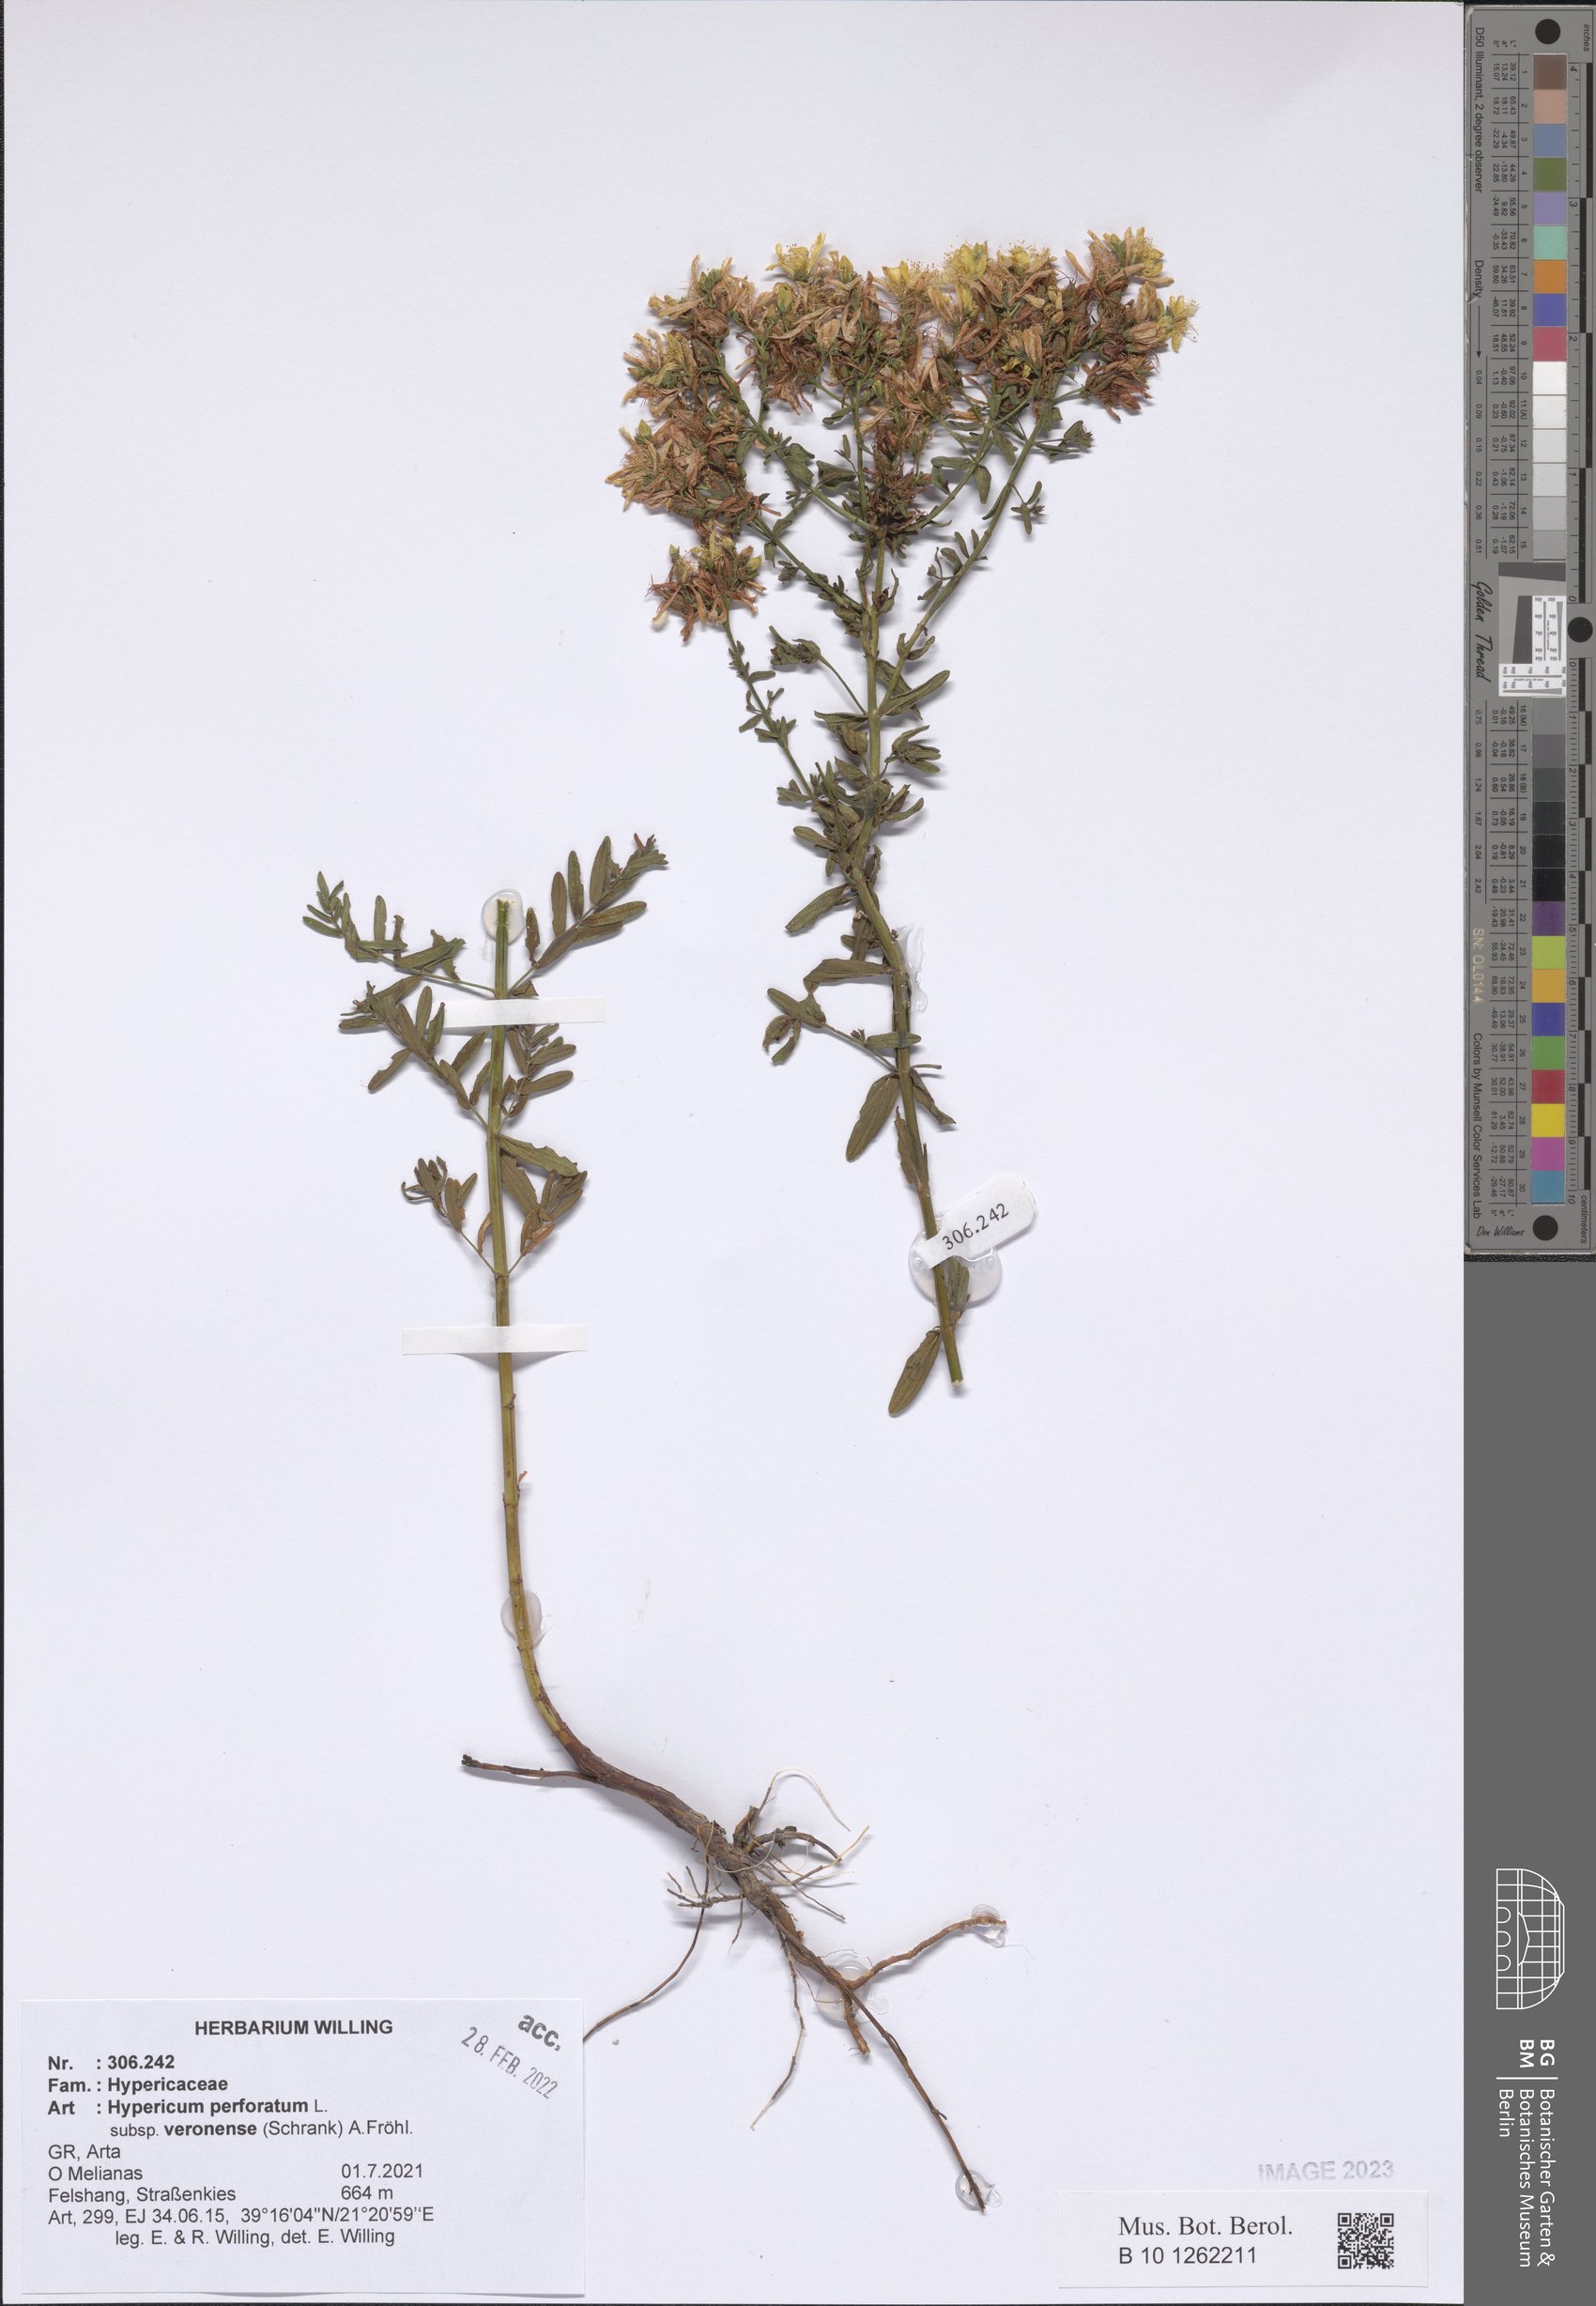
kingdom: Plantae
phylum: Tracheophyta
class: Magnoliopsida
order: Malpighiales
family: Hypericaceae
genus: Hypericum
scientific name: Hypericum veronense
